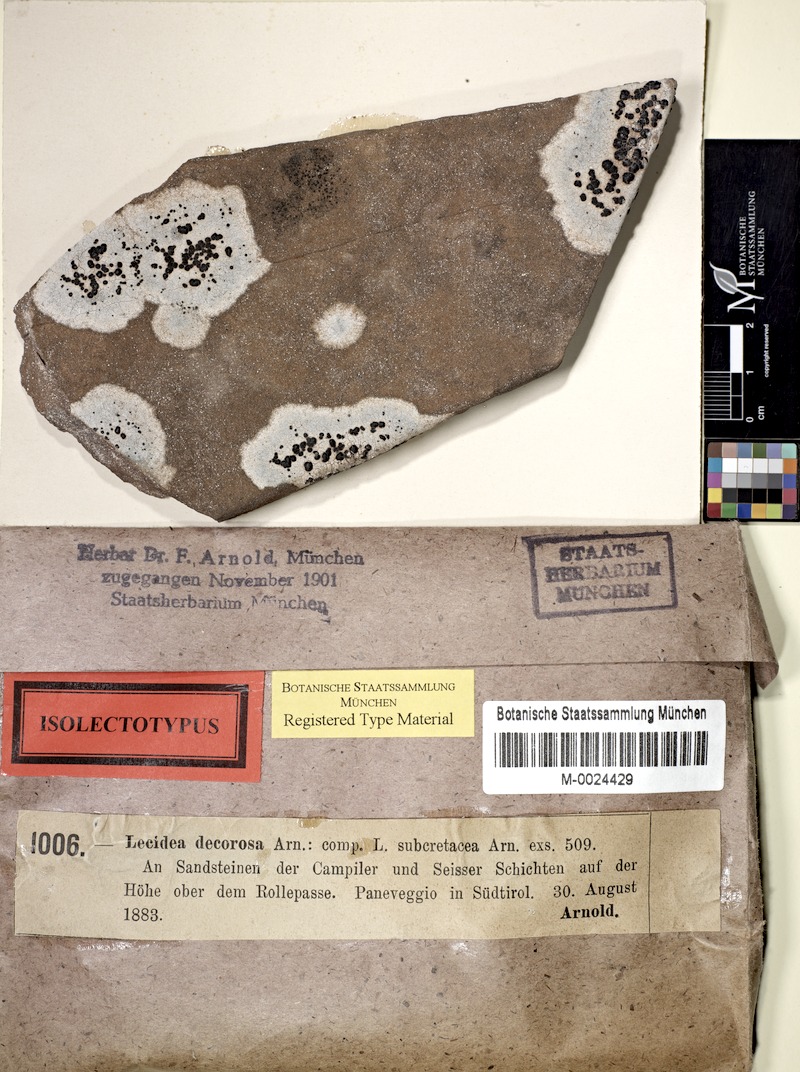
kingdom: Fungi
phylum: Ascomycota
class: Lecanoromycetes
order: Lecideales
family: Lecideaceae
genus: Lecidea
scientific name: Lecidea speirodes
